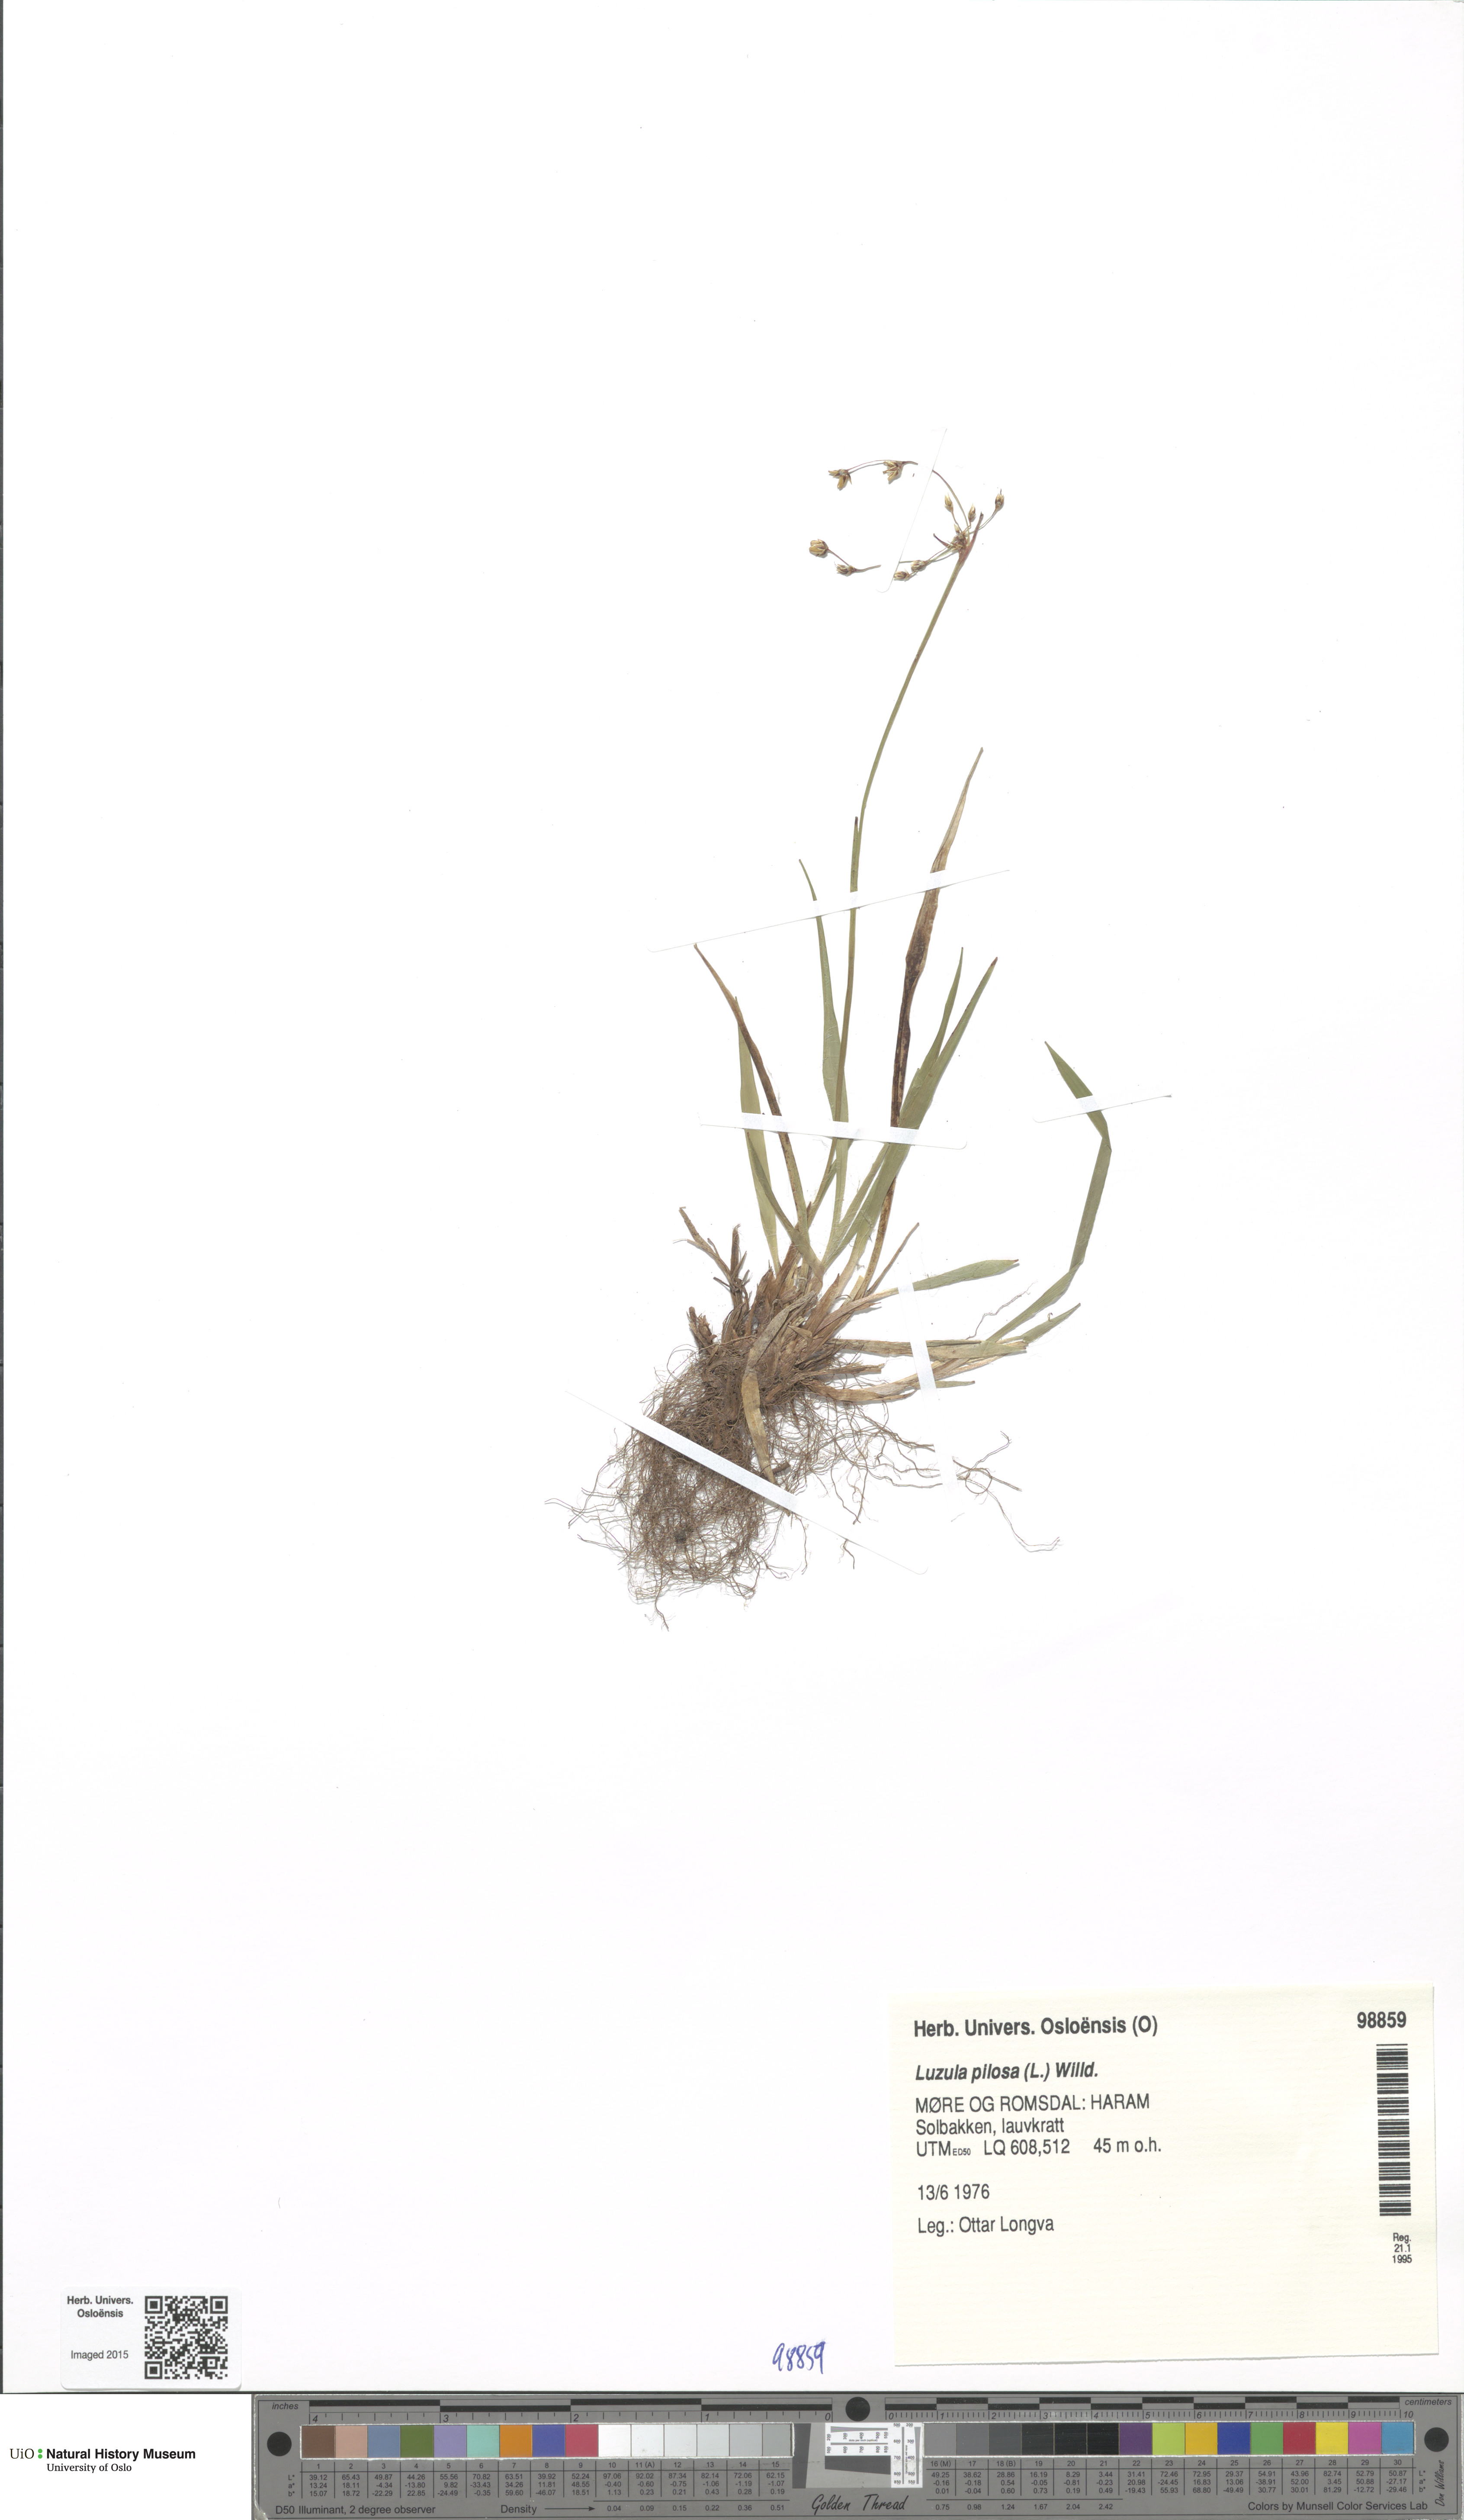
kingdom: Plantae
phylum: Tracheophyta
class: Liliopsida
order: Poales
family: Juncaceae
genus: Luzula
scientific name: Luzula pilosa
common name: Hairy wood-rush
